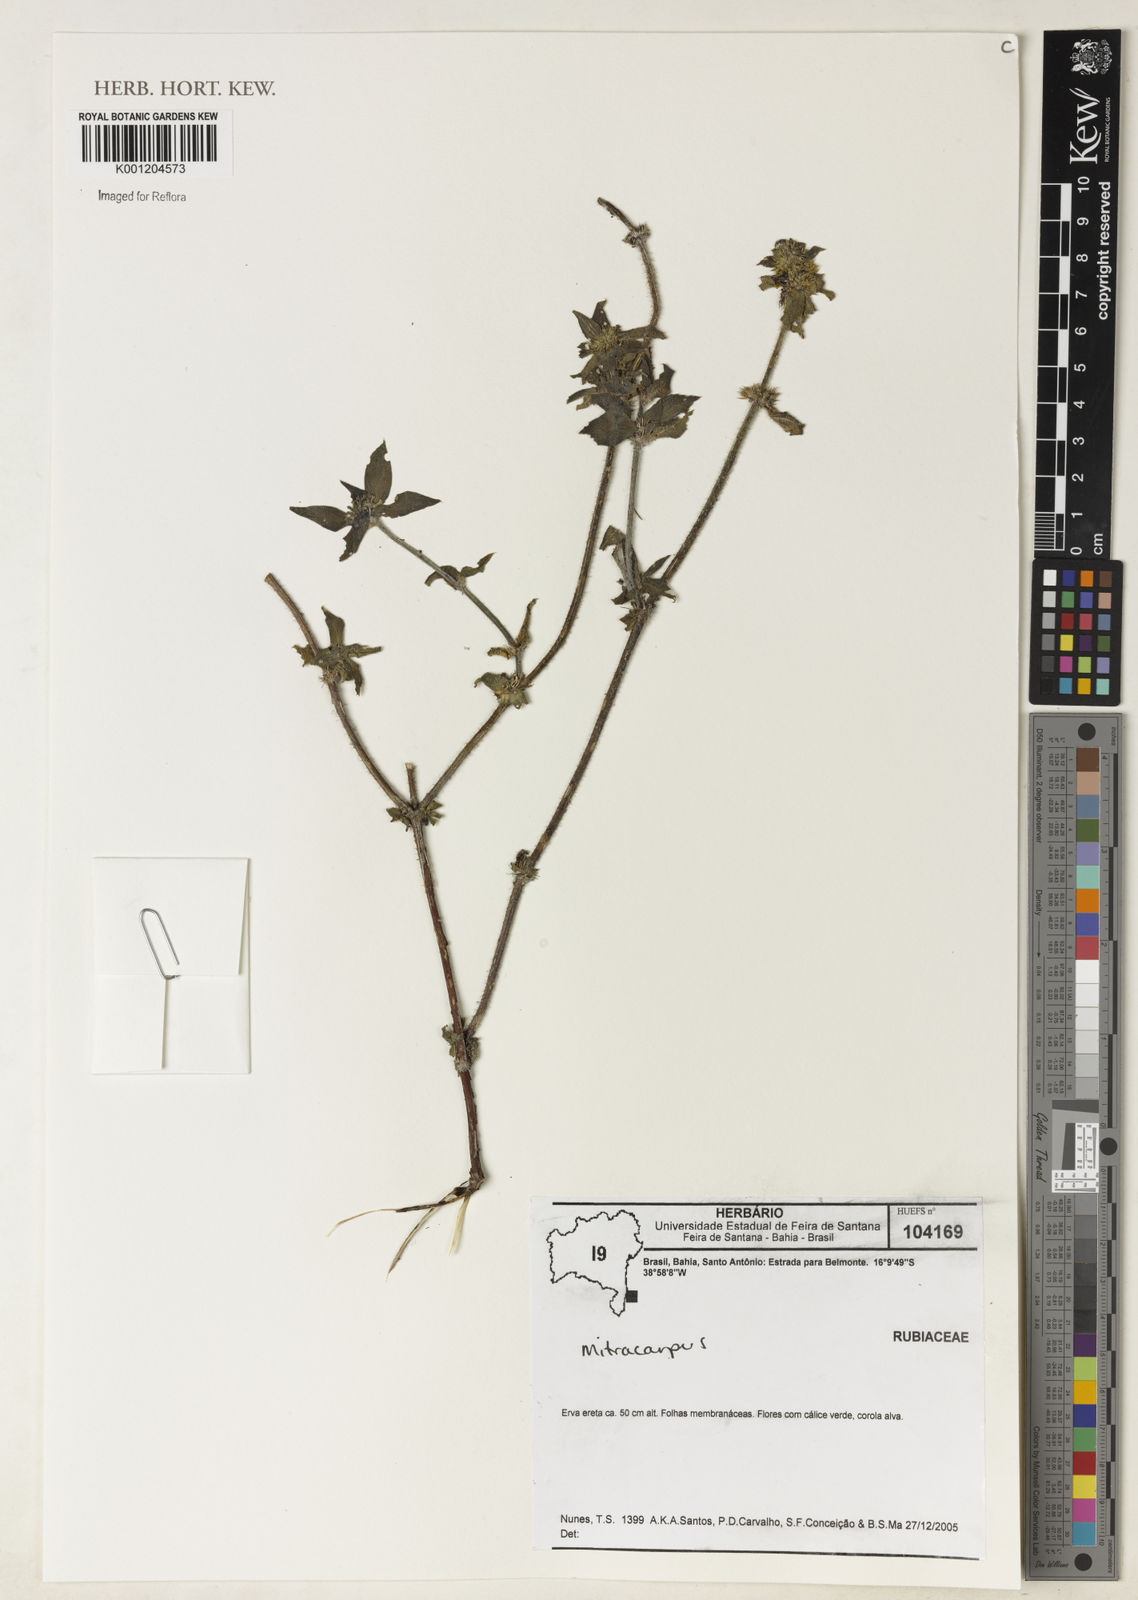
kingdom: Plantae
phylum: Tracheophyta
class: Magnoliopsida
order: Gentianales
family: Rubiaceae
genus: Mitracarpus
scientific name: Mitracarpus
